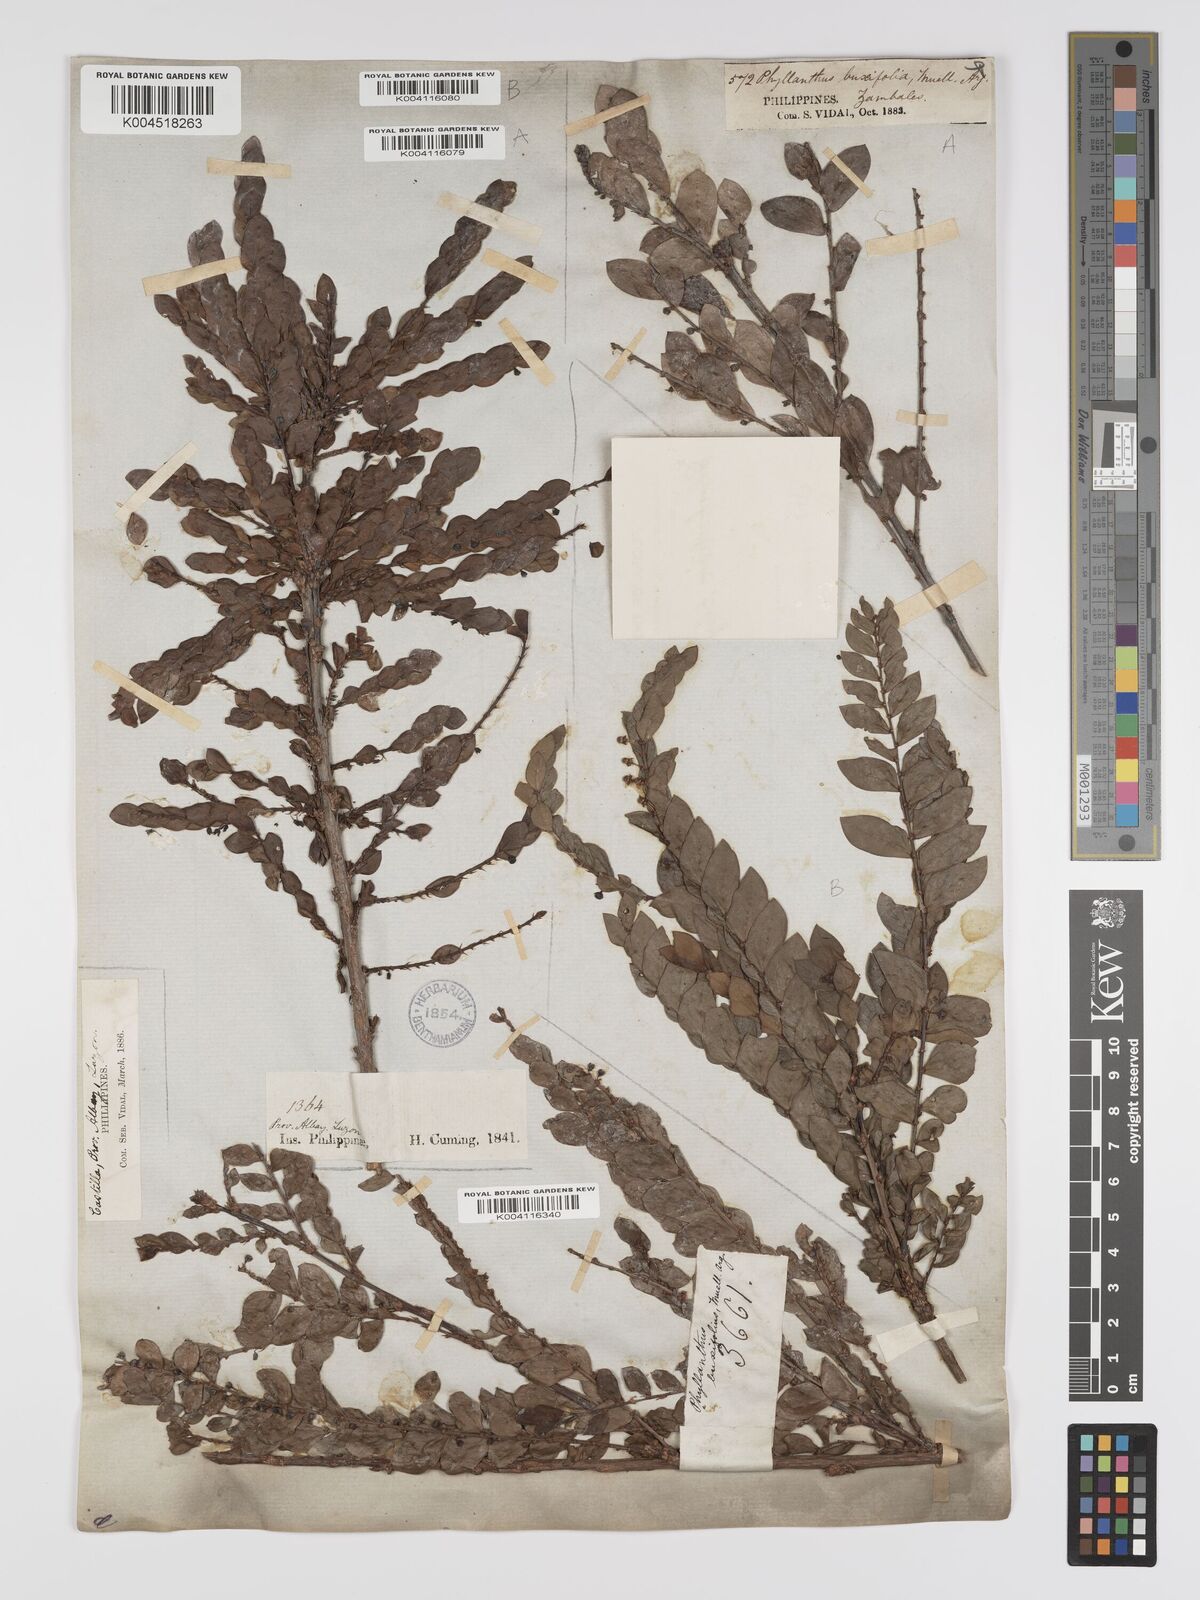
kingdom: Plantae
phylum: Tracheophyta
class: Magnoliopsida
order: Malpighiales
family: Phyllanthaceae
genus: Phyllanthus
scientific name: Phyllanthus buxifolius
